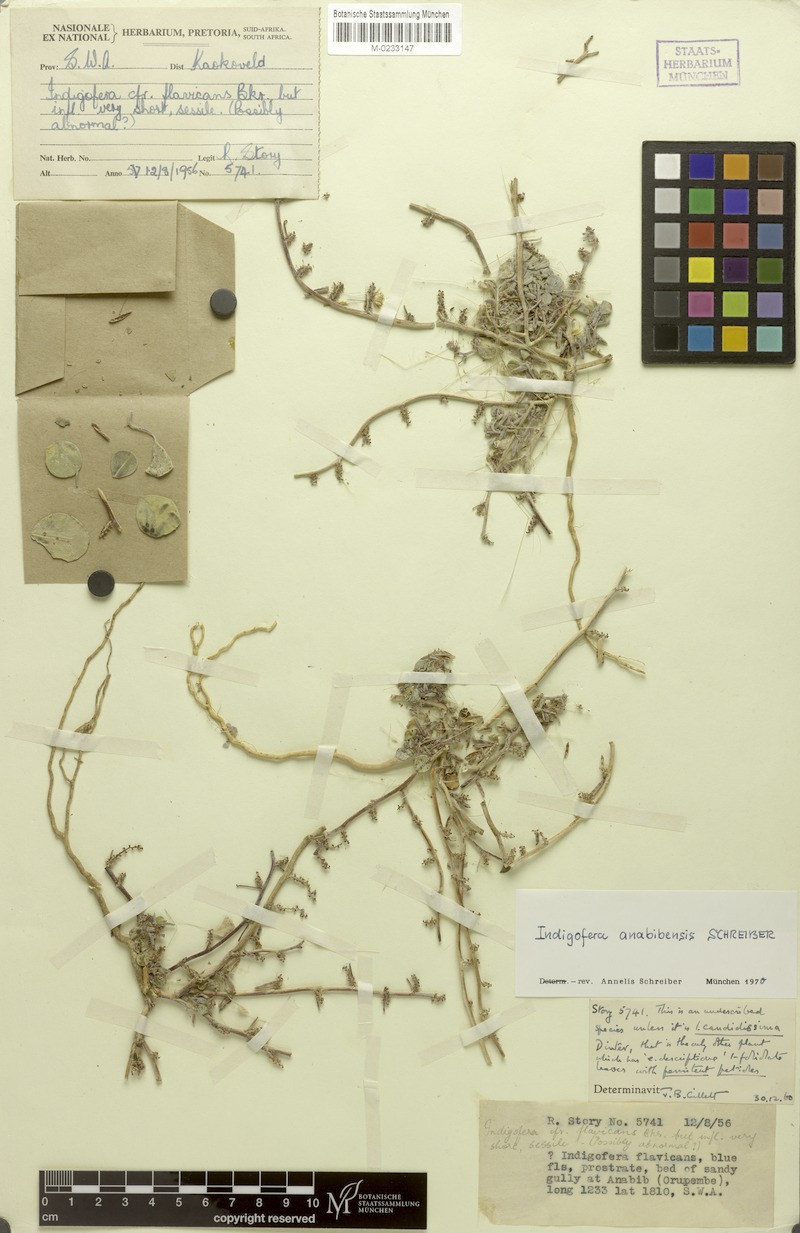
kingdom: Plantae
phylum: Tracheophyta
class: Magnoliopsida
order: Fabales
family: Fabaceae
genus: Indigofera
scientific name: Indigofera anabibensis
